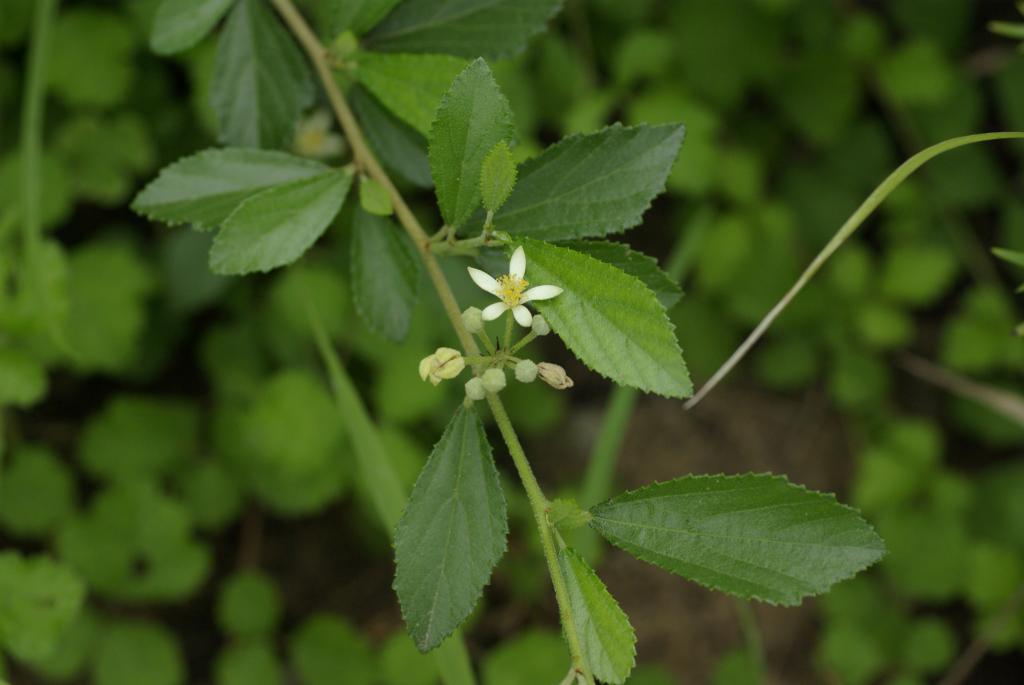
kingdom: Plantae
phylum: Tracheophyta
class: Magnoliopsida
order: Malvales
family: Malvaceae
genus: Grewia
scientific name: Grewia rhombifolia
